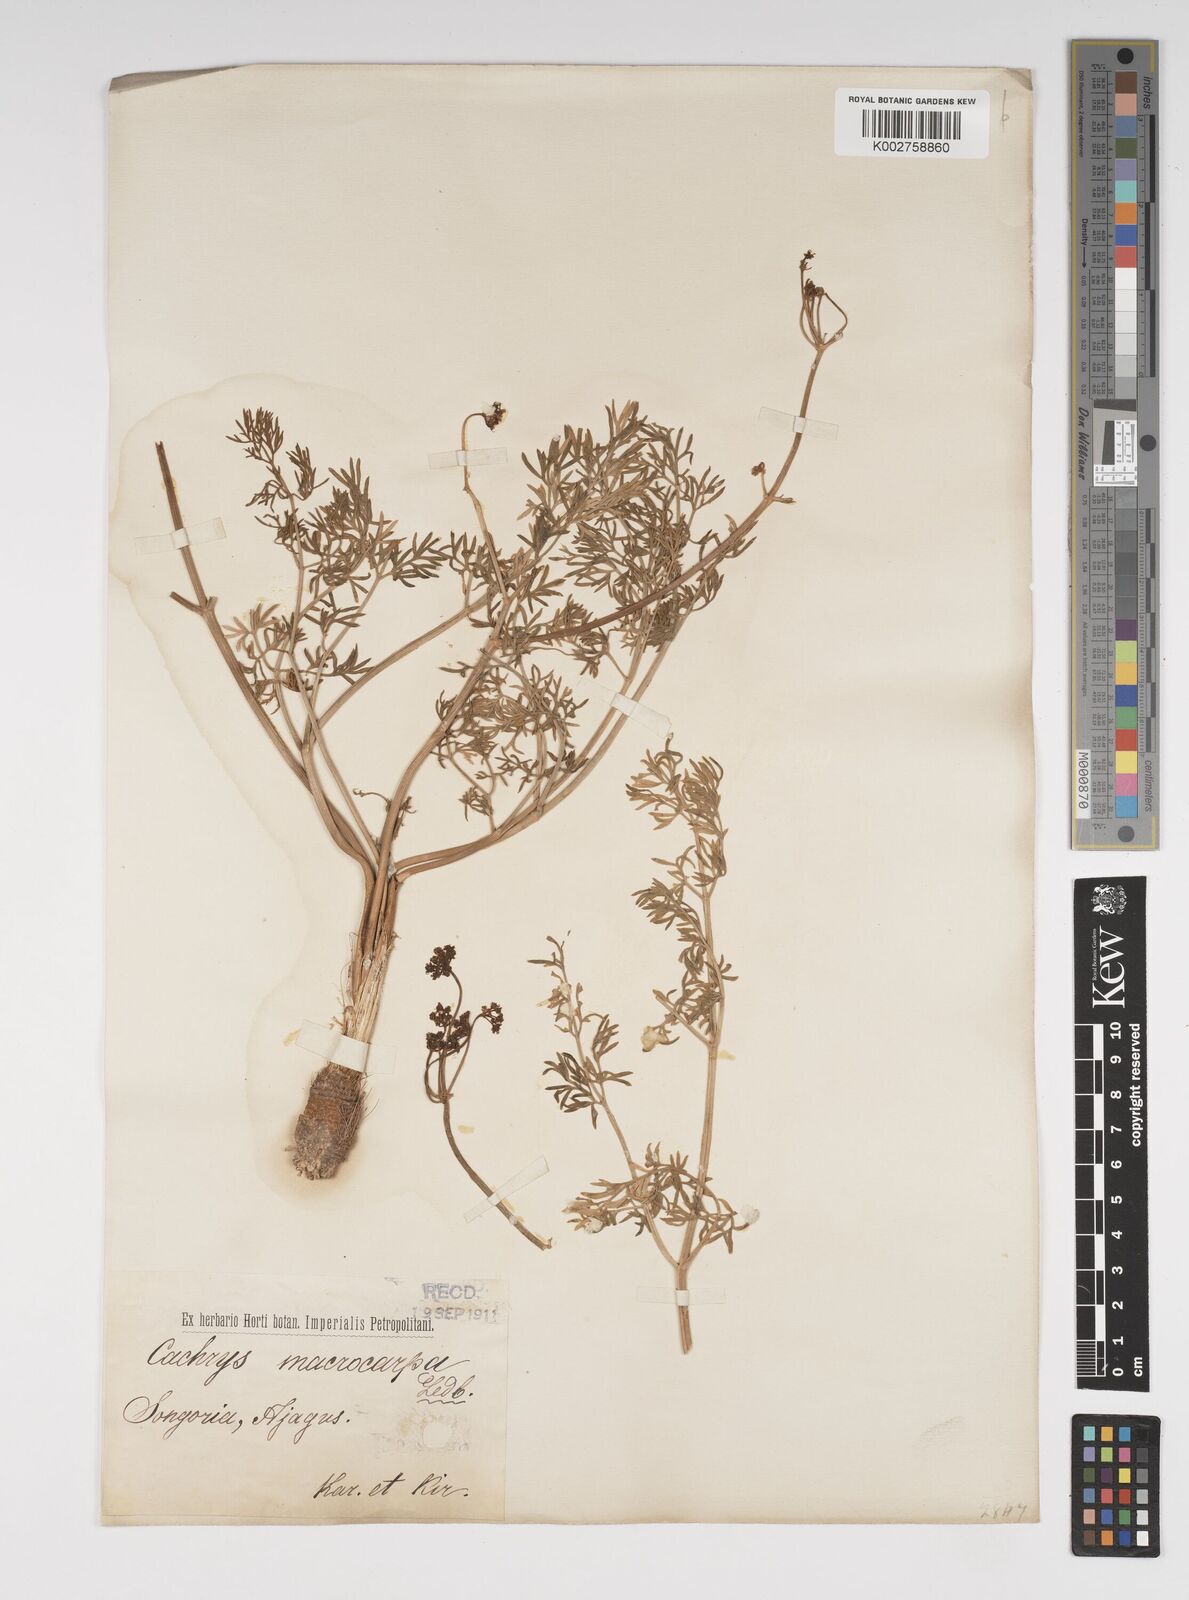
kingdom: Plantae
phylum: Tracheophyta
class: Magnoliopsida
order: Apiales
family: Apiaceae
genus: Prangos
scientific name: Prangos ferulacea
